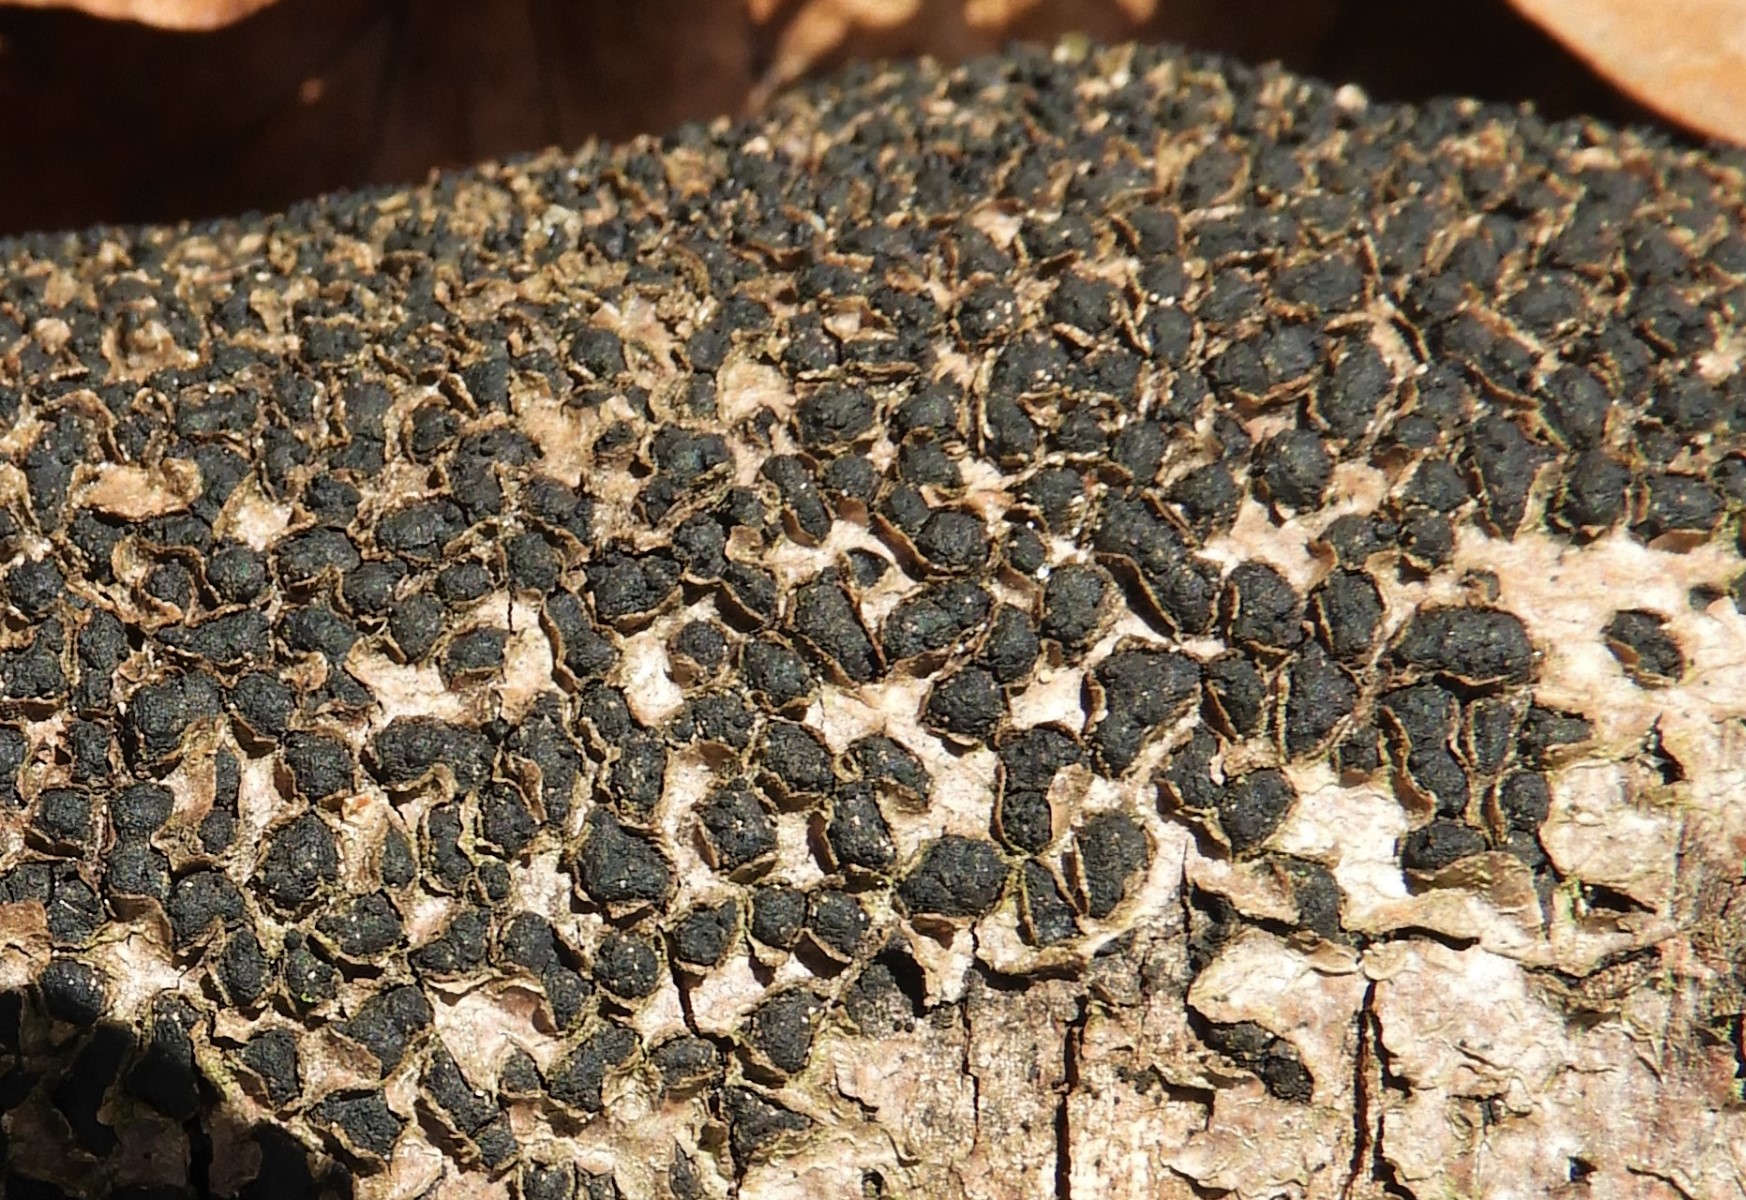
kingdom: Fungi
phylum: Ascomycota
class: Sordariomycetes
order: Xylariales
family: Melogrammataceae
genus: Melogramma
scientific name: Melogramma spiniferum
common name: bøgefod-kulhals
